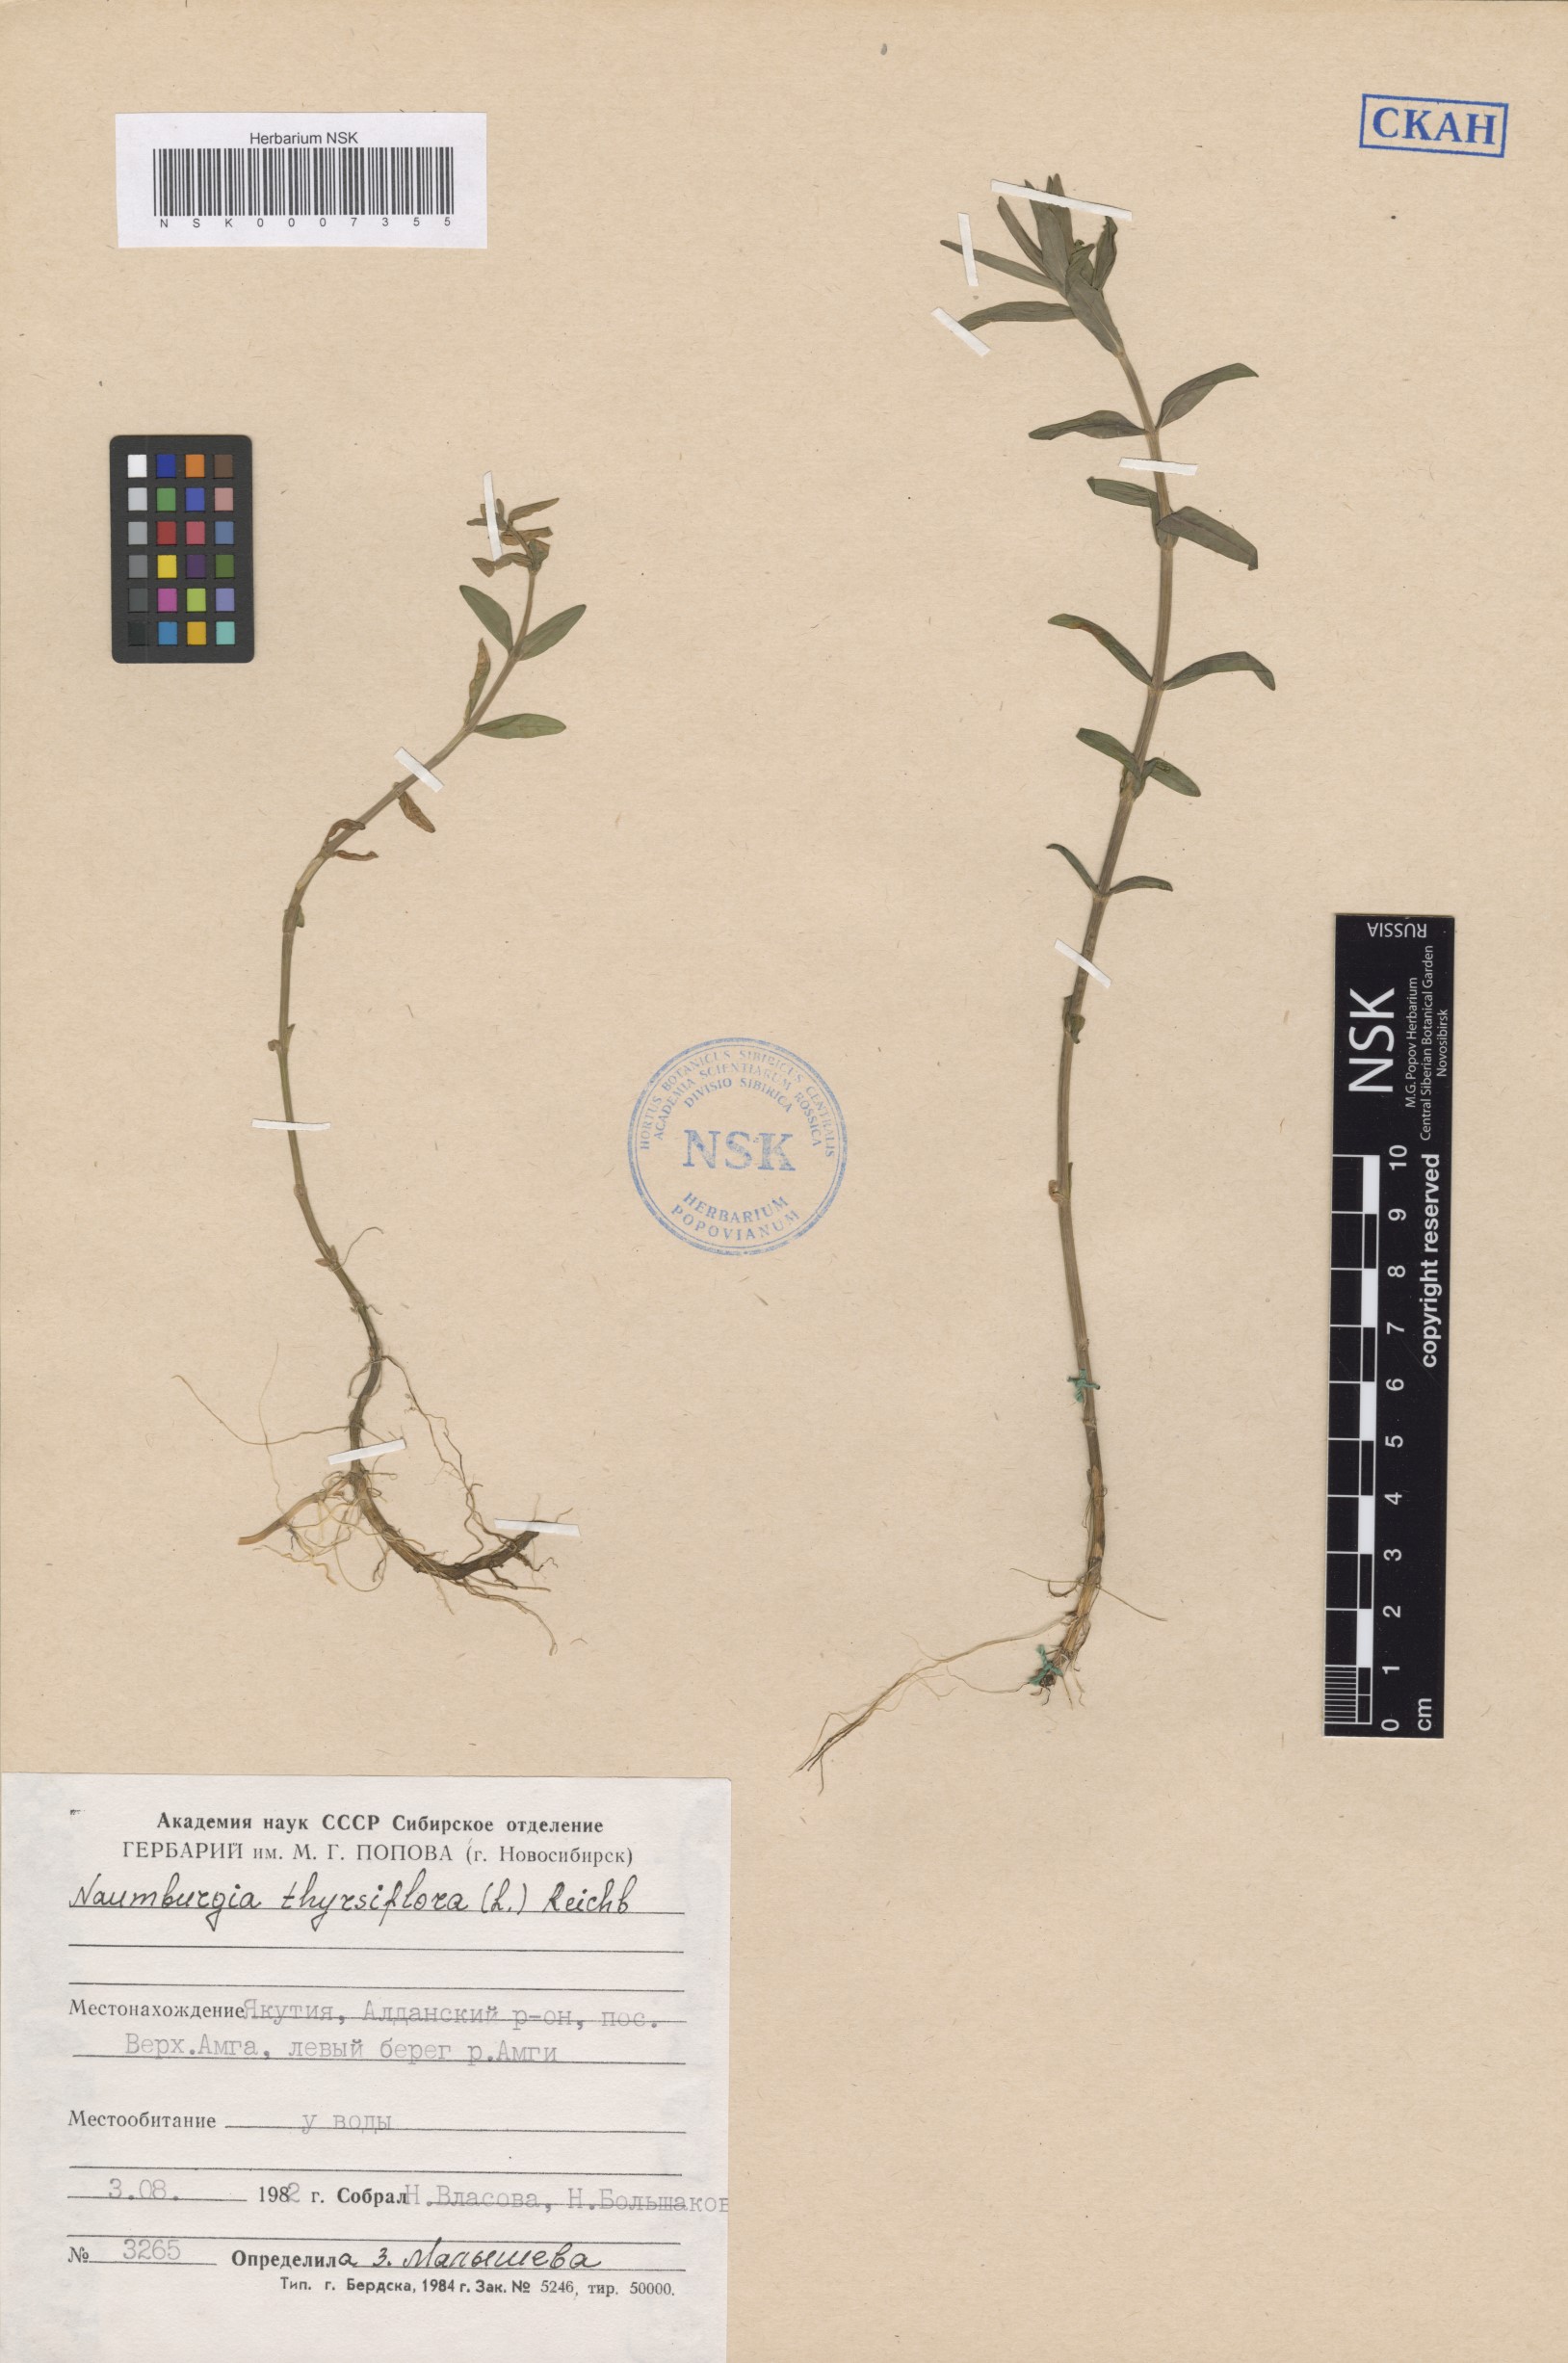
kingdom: Plantae
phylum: Tracheophyta
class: Magnoliopsida
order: Ericales
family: Primulaceae
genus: Lysimachia
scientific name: Lysimachia thyrsiflora
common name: Tufted loosestrife
